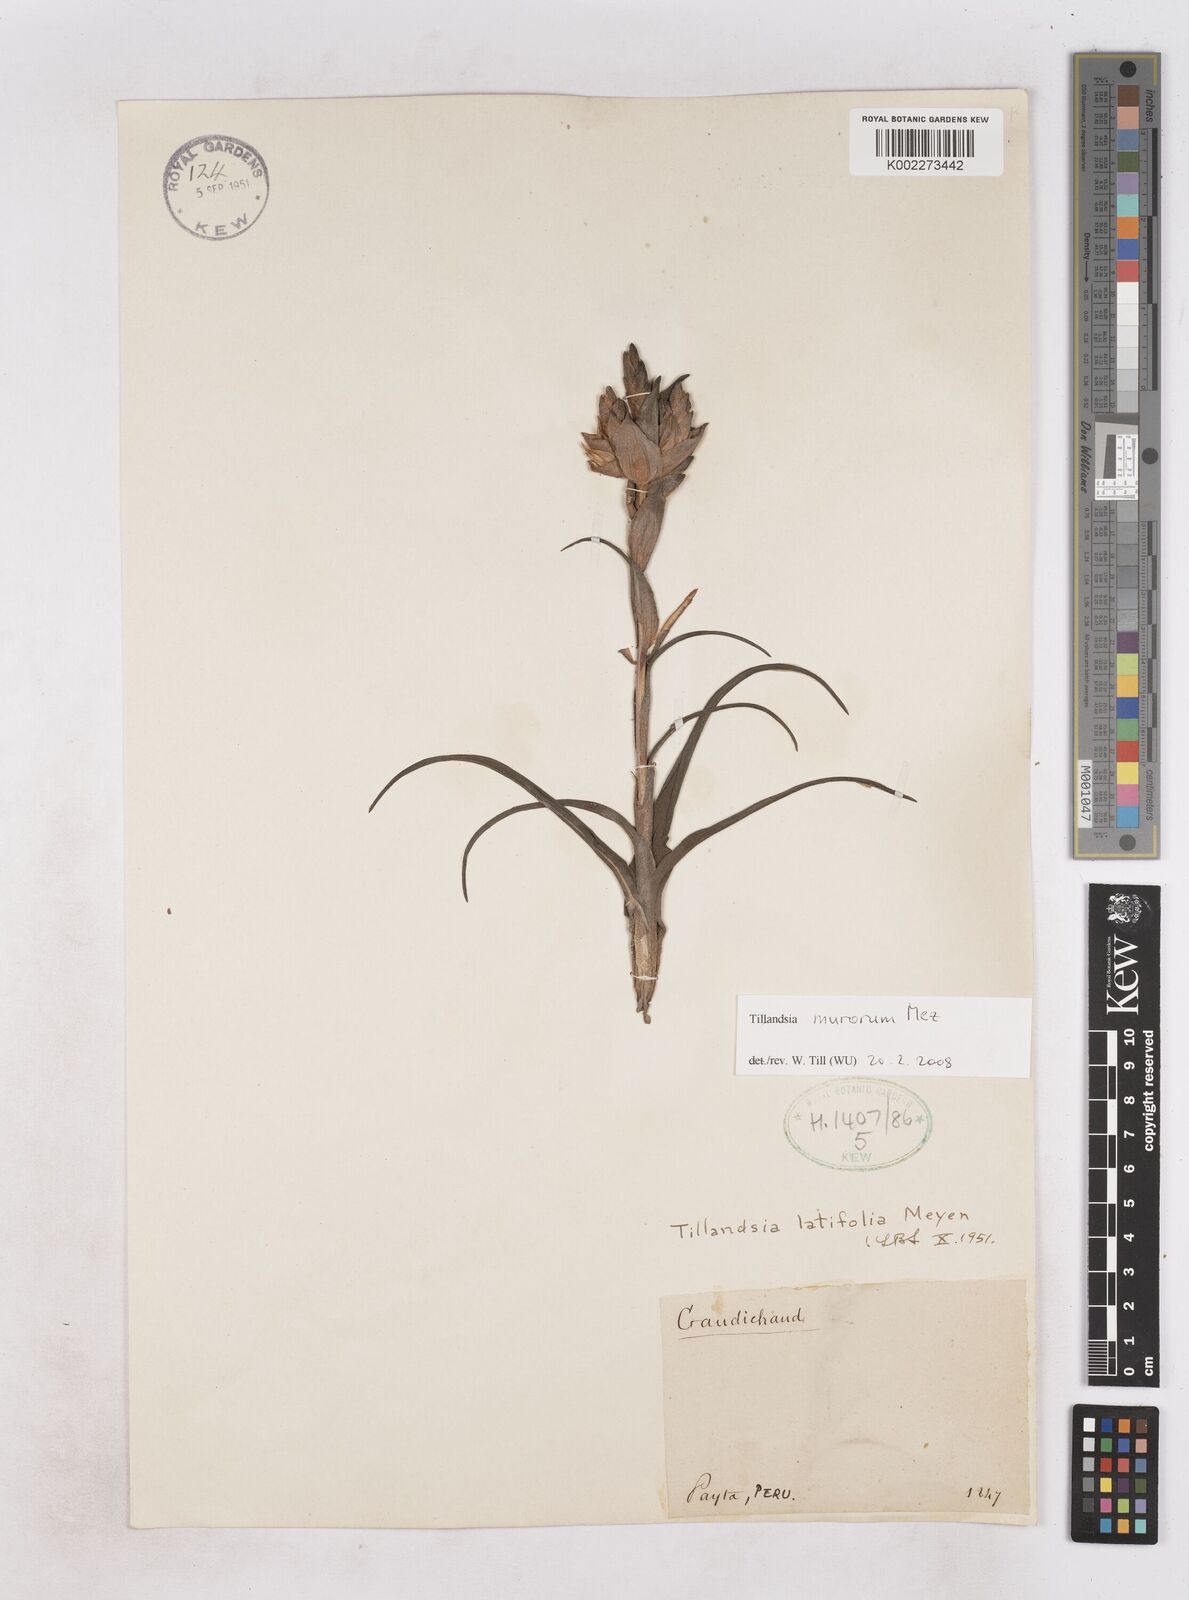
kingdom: Plantae
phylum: Tracheophyta
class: Liliopsida
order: Poales
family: Bromeliaceae
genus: Tillandsia
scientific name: Tillandsia latifolia
